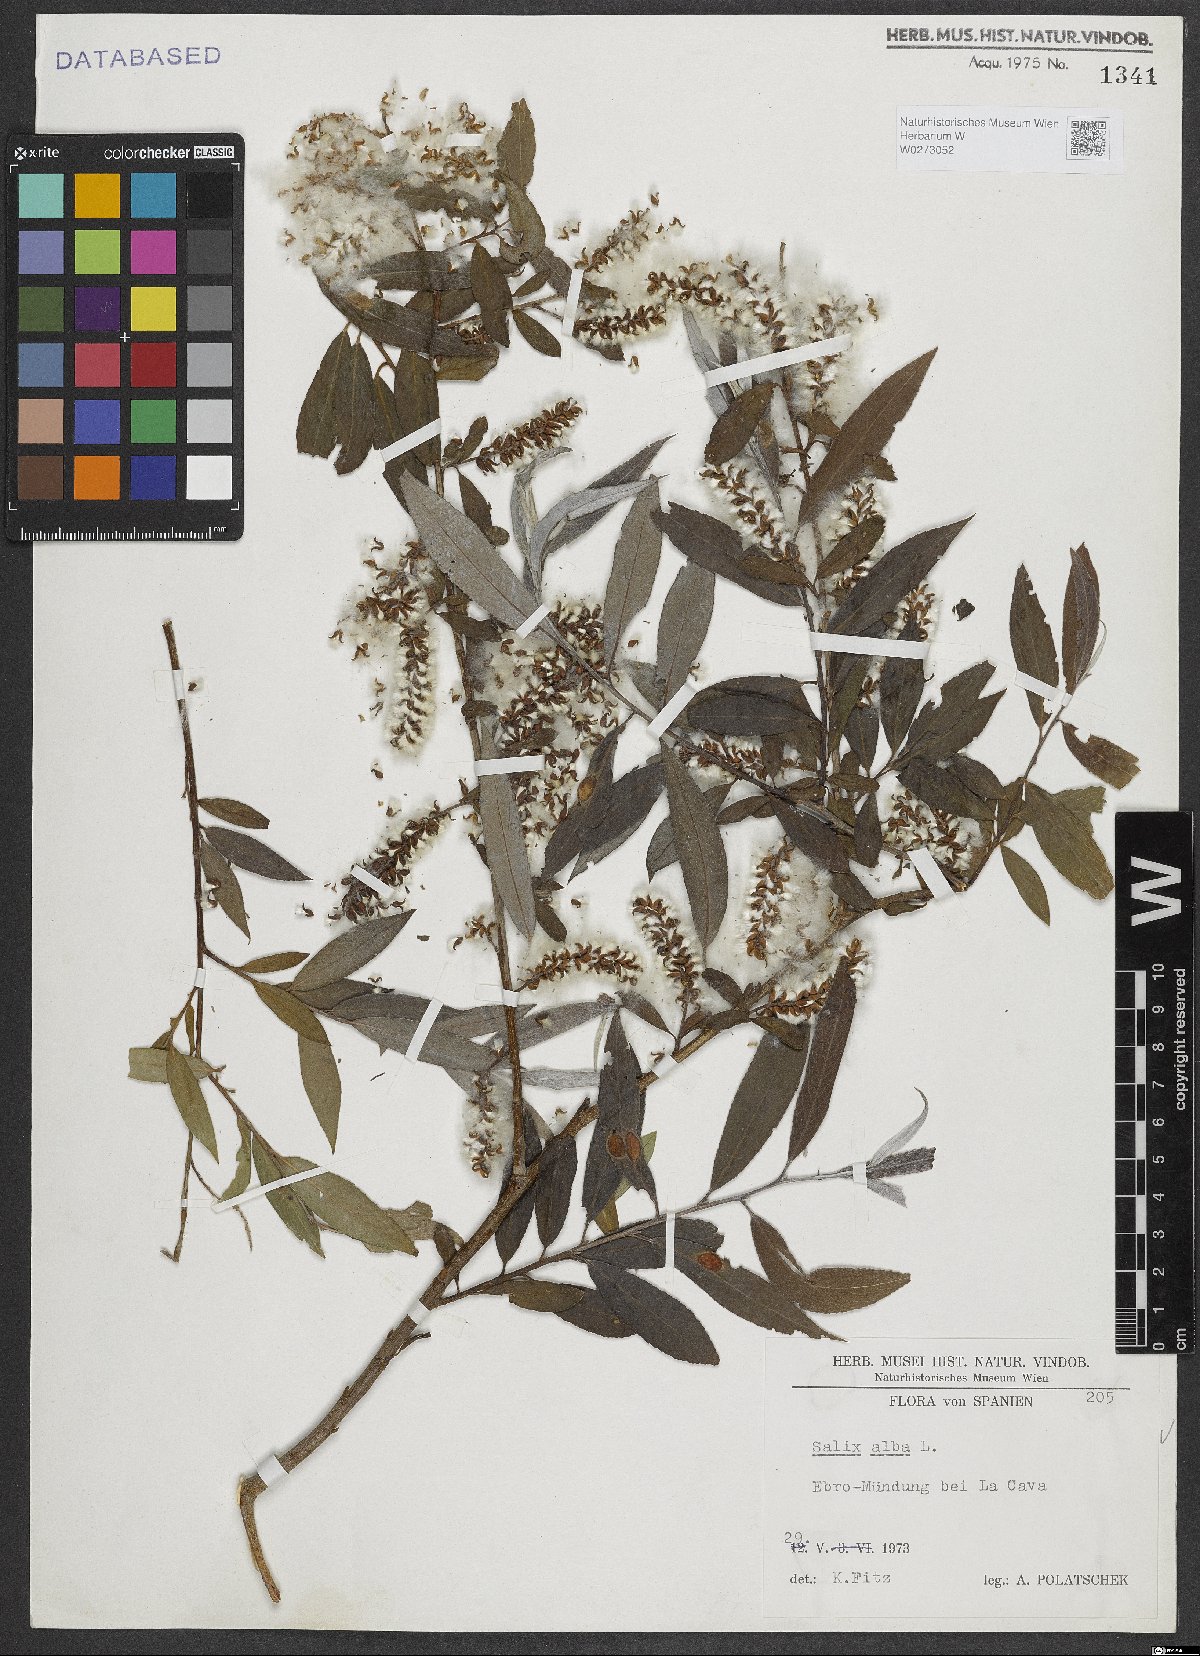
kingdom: Plantae
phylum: Tracheophyta
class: Magnoliopsida
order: Malpighiales
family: Salicaceae
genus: Salix
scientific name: Salix alba
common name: White willow
